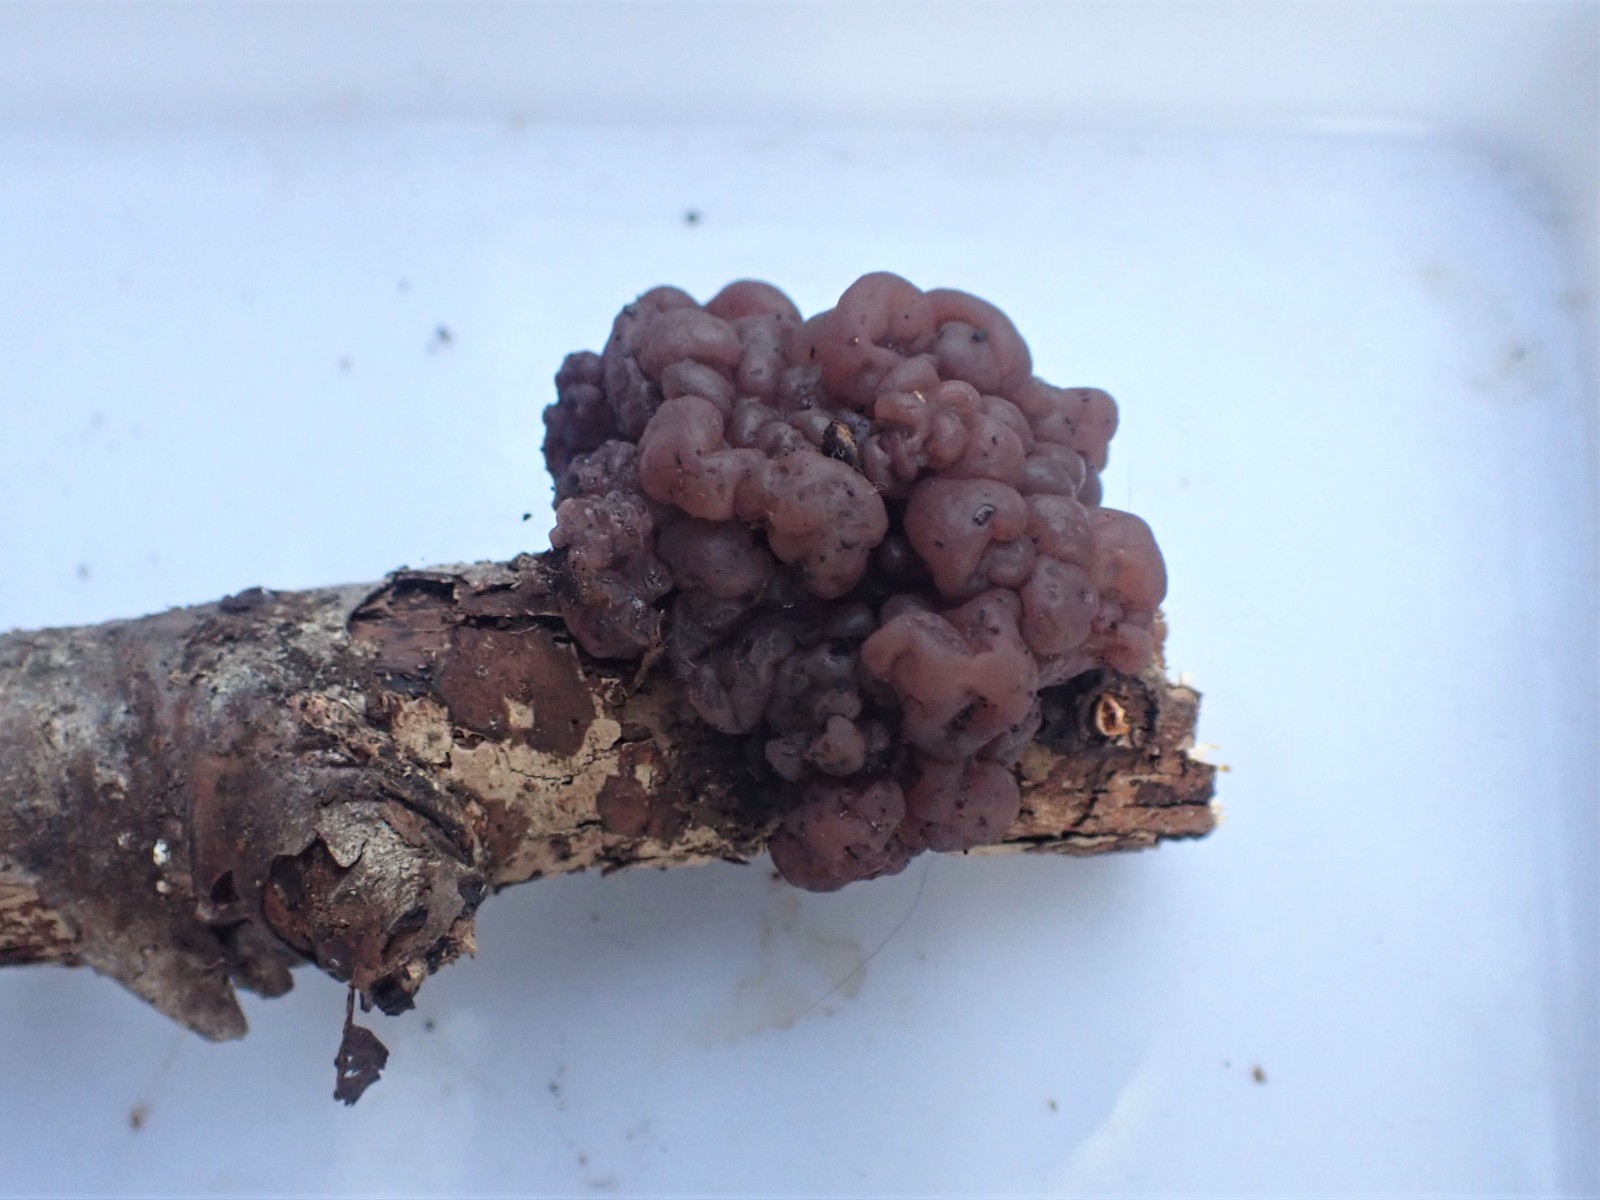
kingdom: Fungi
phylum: Ascomycota
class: Leotiomycetes
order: Helotiales
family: Gelatinodiscaceae
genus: Ascotremella
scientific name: Ascotremella faginea
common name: hjerne-bævreskive
